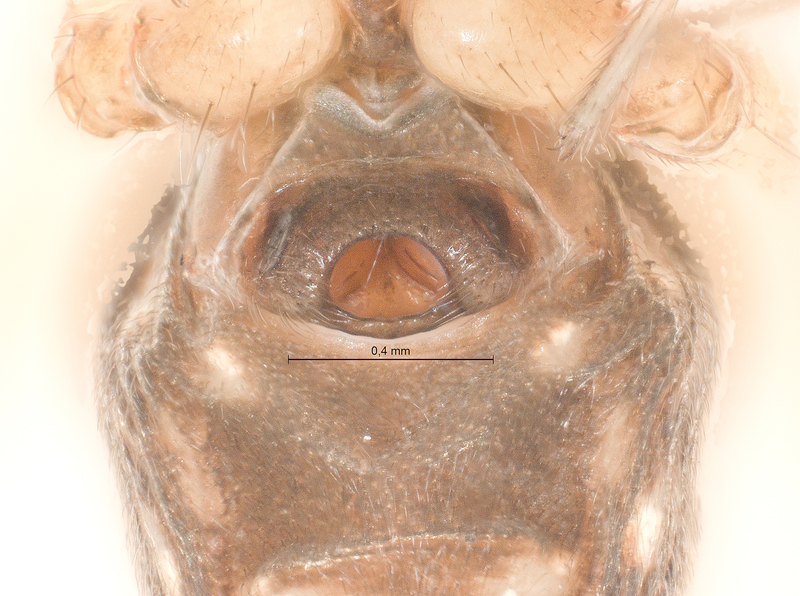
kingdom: Animalia
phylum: Arthropoda
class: Arachnida
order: Araneae
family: Linyphiidae
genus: Neriene
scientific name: Neriene clathrata
